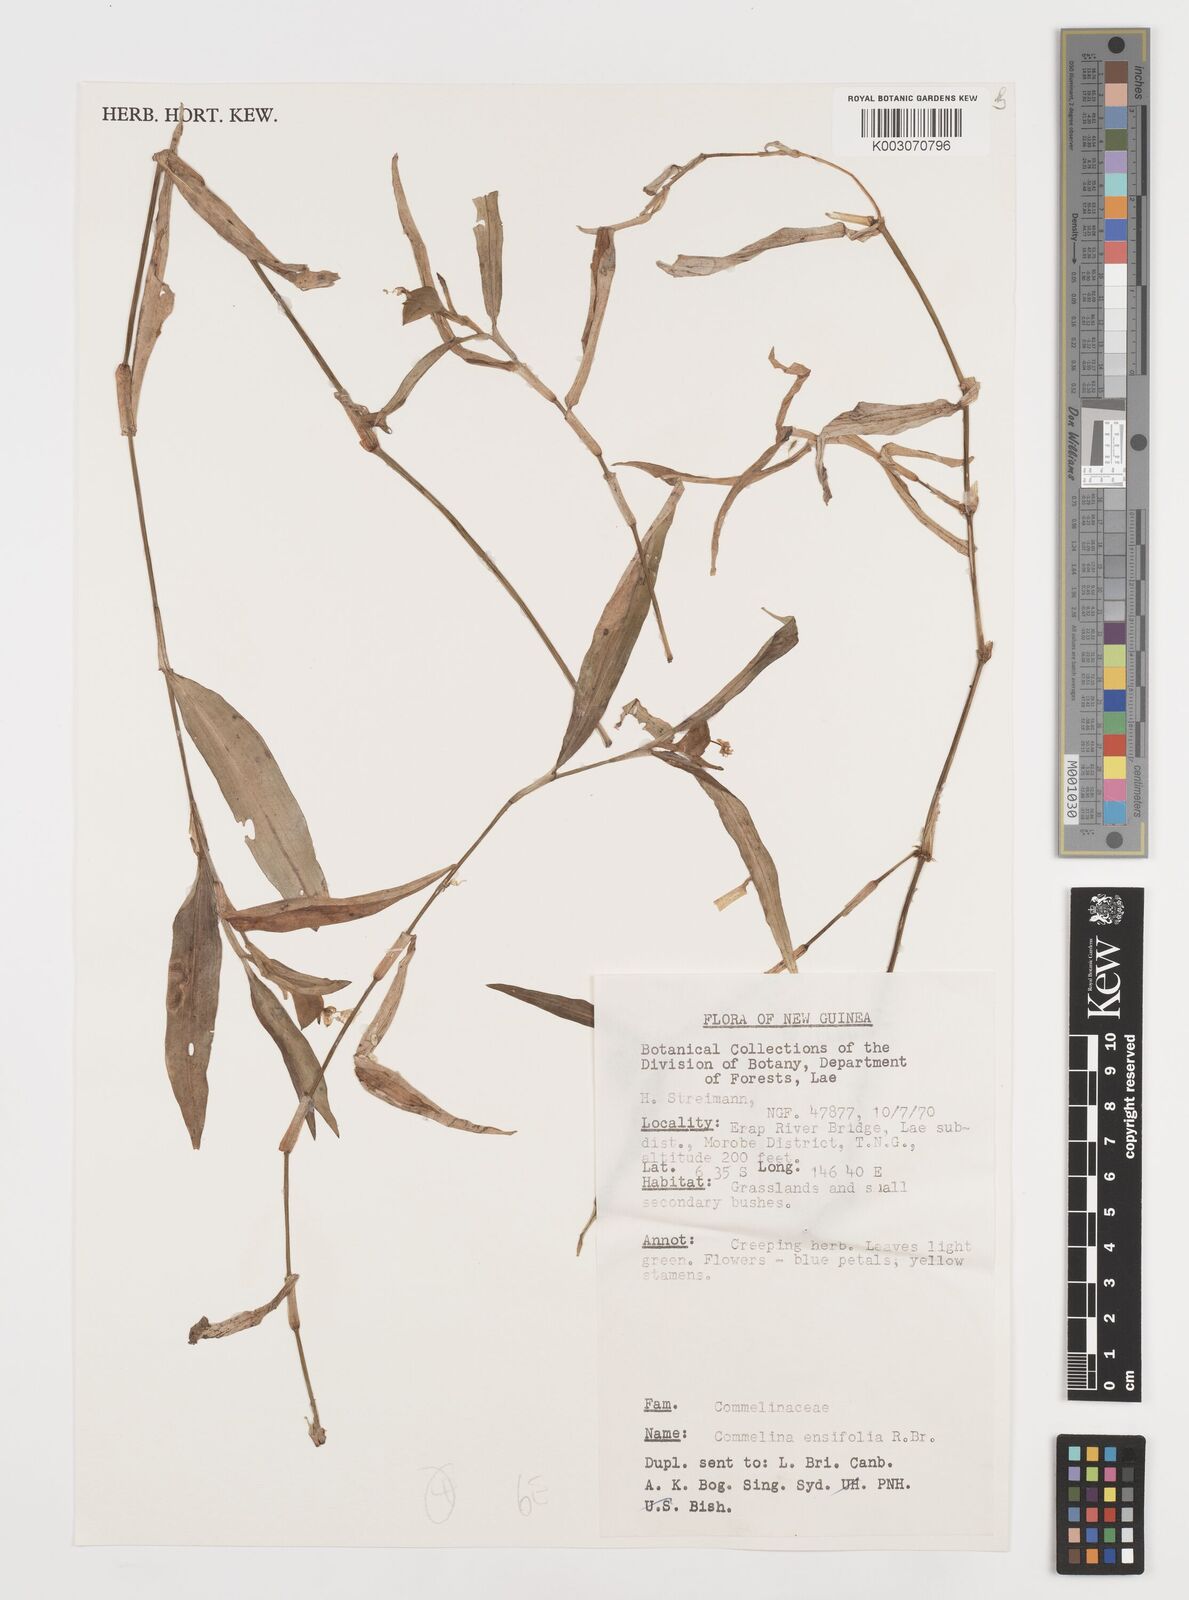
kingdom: Plantae
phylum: Tracheophyta
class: Liliopsida
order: Commelinales
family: Commelinaceae
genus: Commelina
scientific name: Commelina ensifolia
